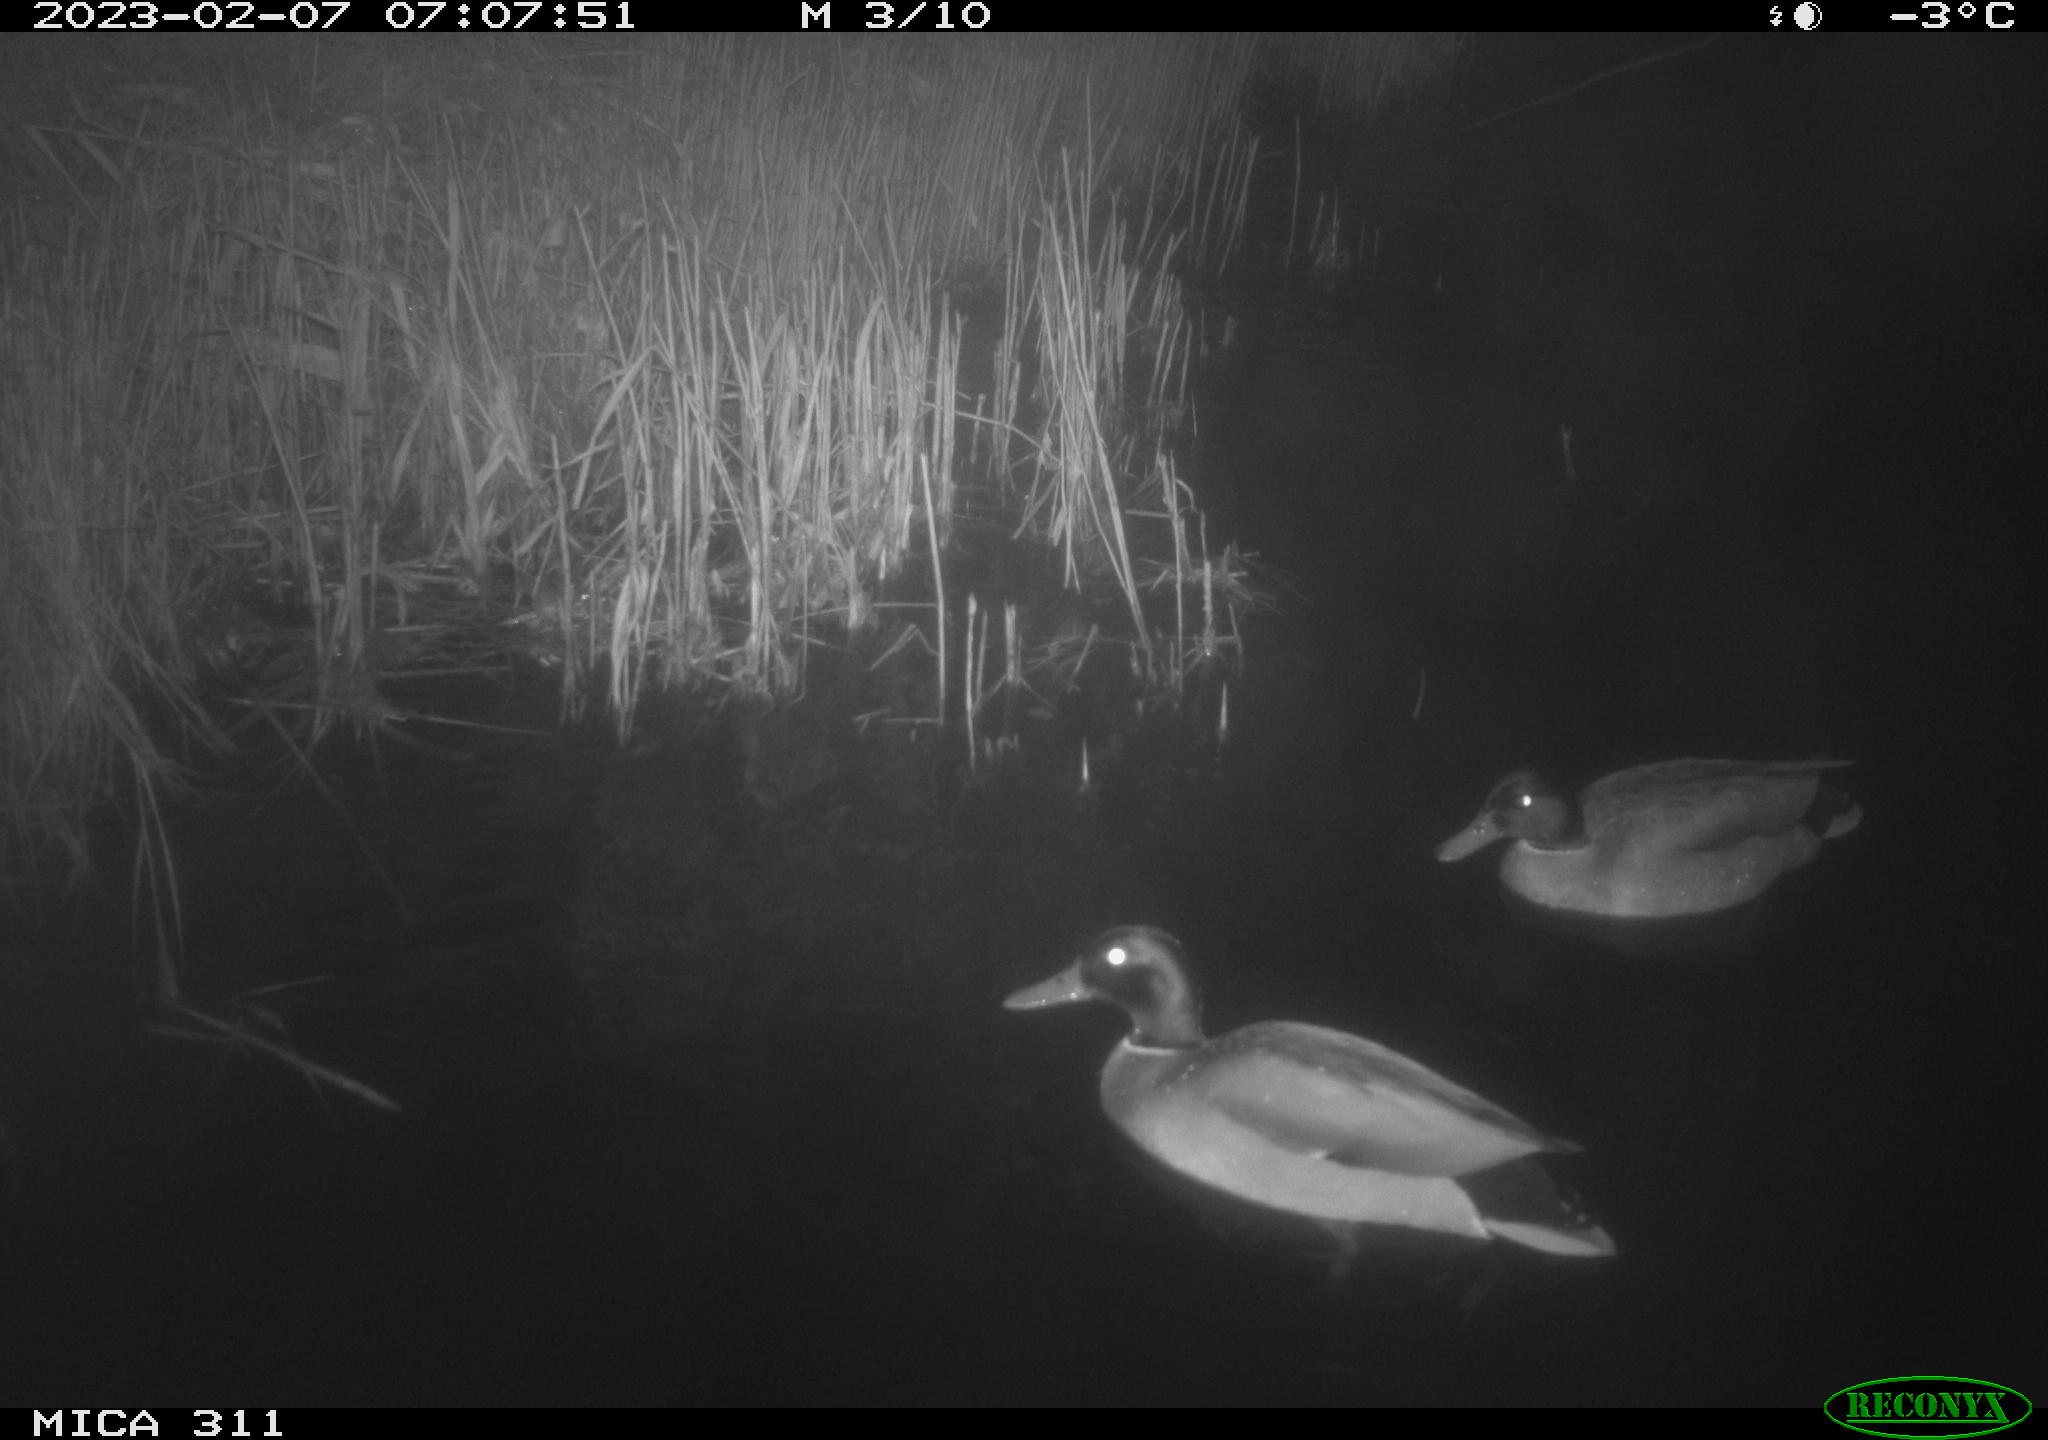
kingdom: Animalia
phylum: Chordata
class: Aves
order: Anseriformes
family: Anatidae
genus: Anas
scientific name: Anas
